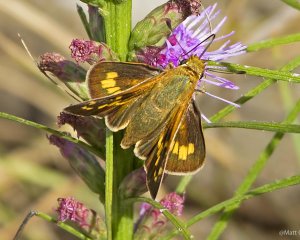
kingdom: Animalia
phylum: Arthropoda
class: Insecta
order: Lepidoptera
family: Hesperiidae
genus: Hesperia
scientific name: Hesperia leonardus
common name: Leonard's Skipper
